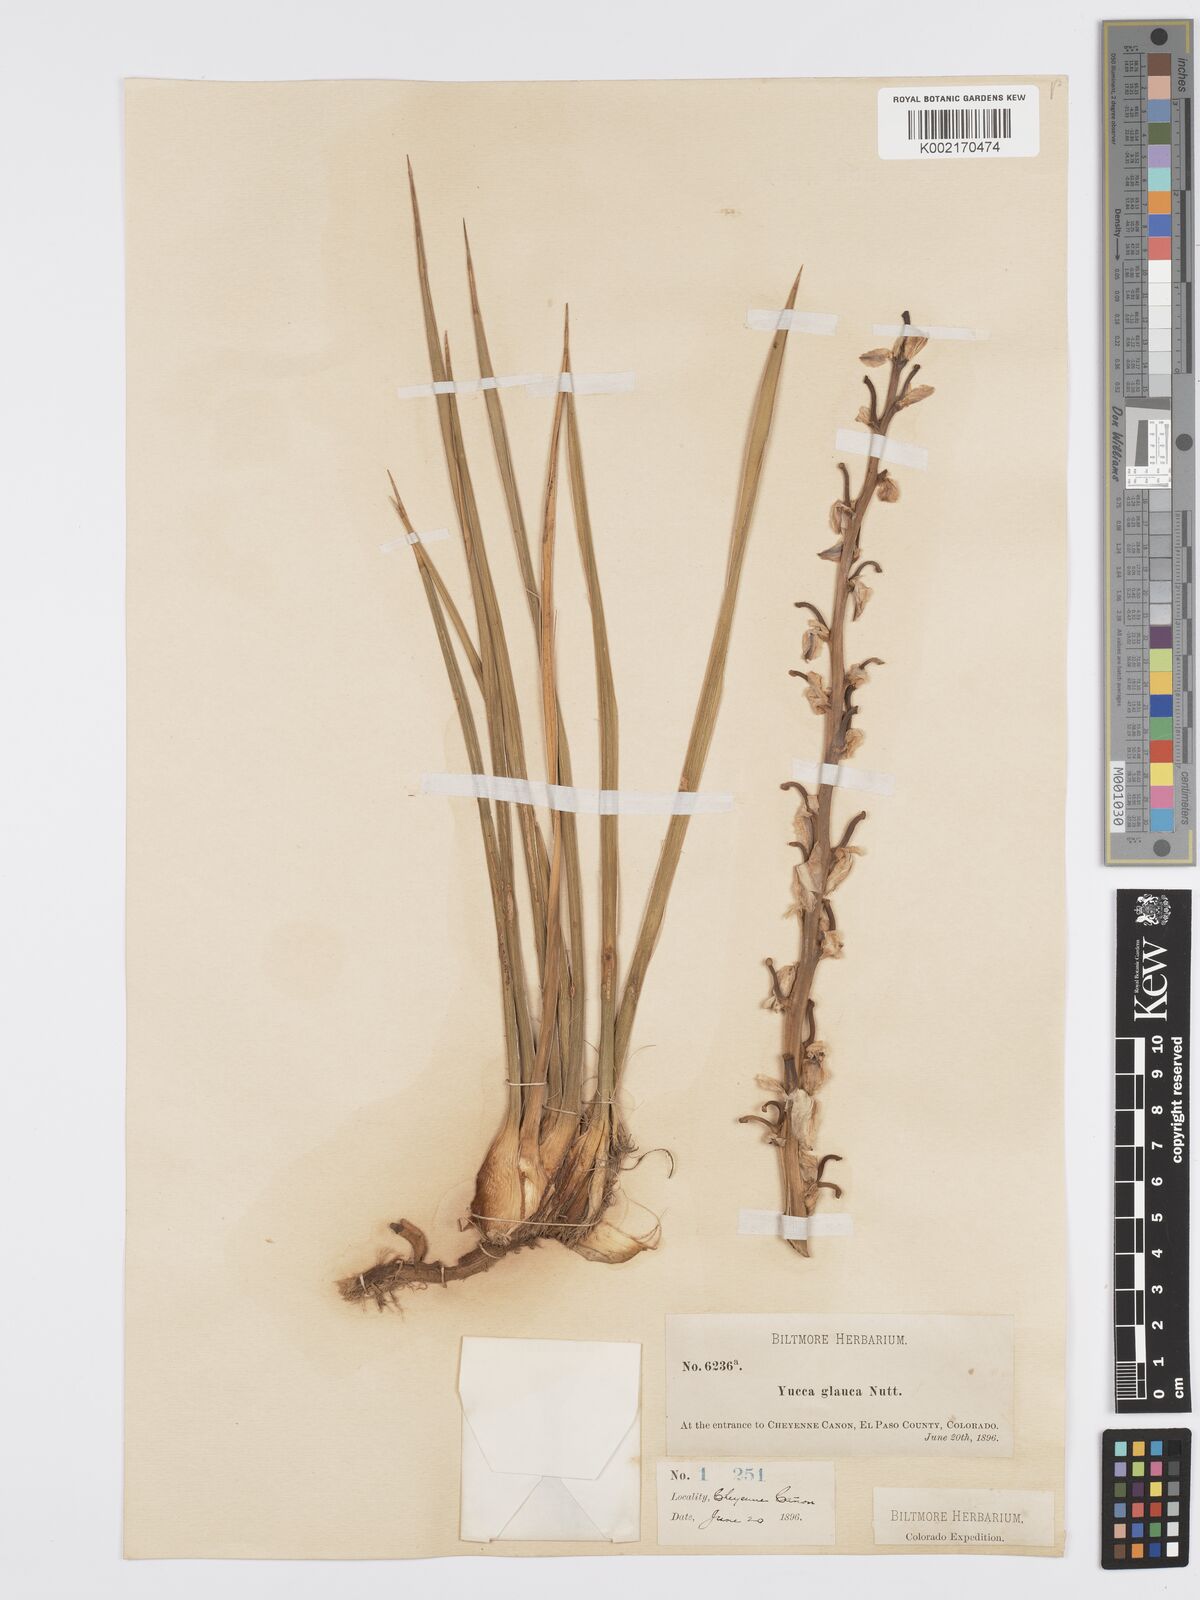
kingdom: Plantae
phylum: Tracheophyta
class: Liliopsida
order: Asparagales
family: Asparagaceae
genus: Yucca
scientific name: Yucca glauca
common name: Great plains yucca
